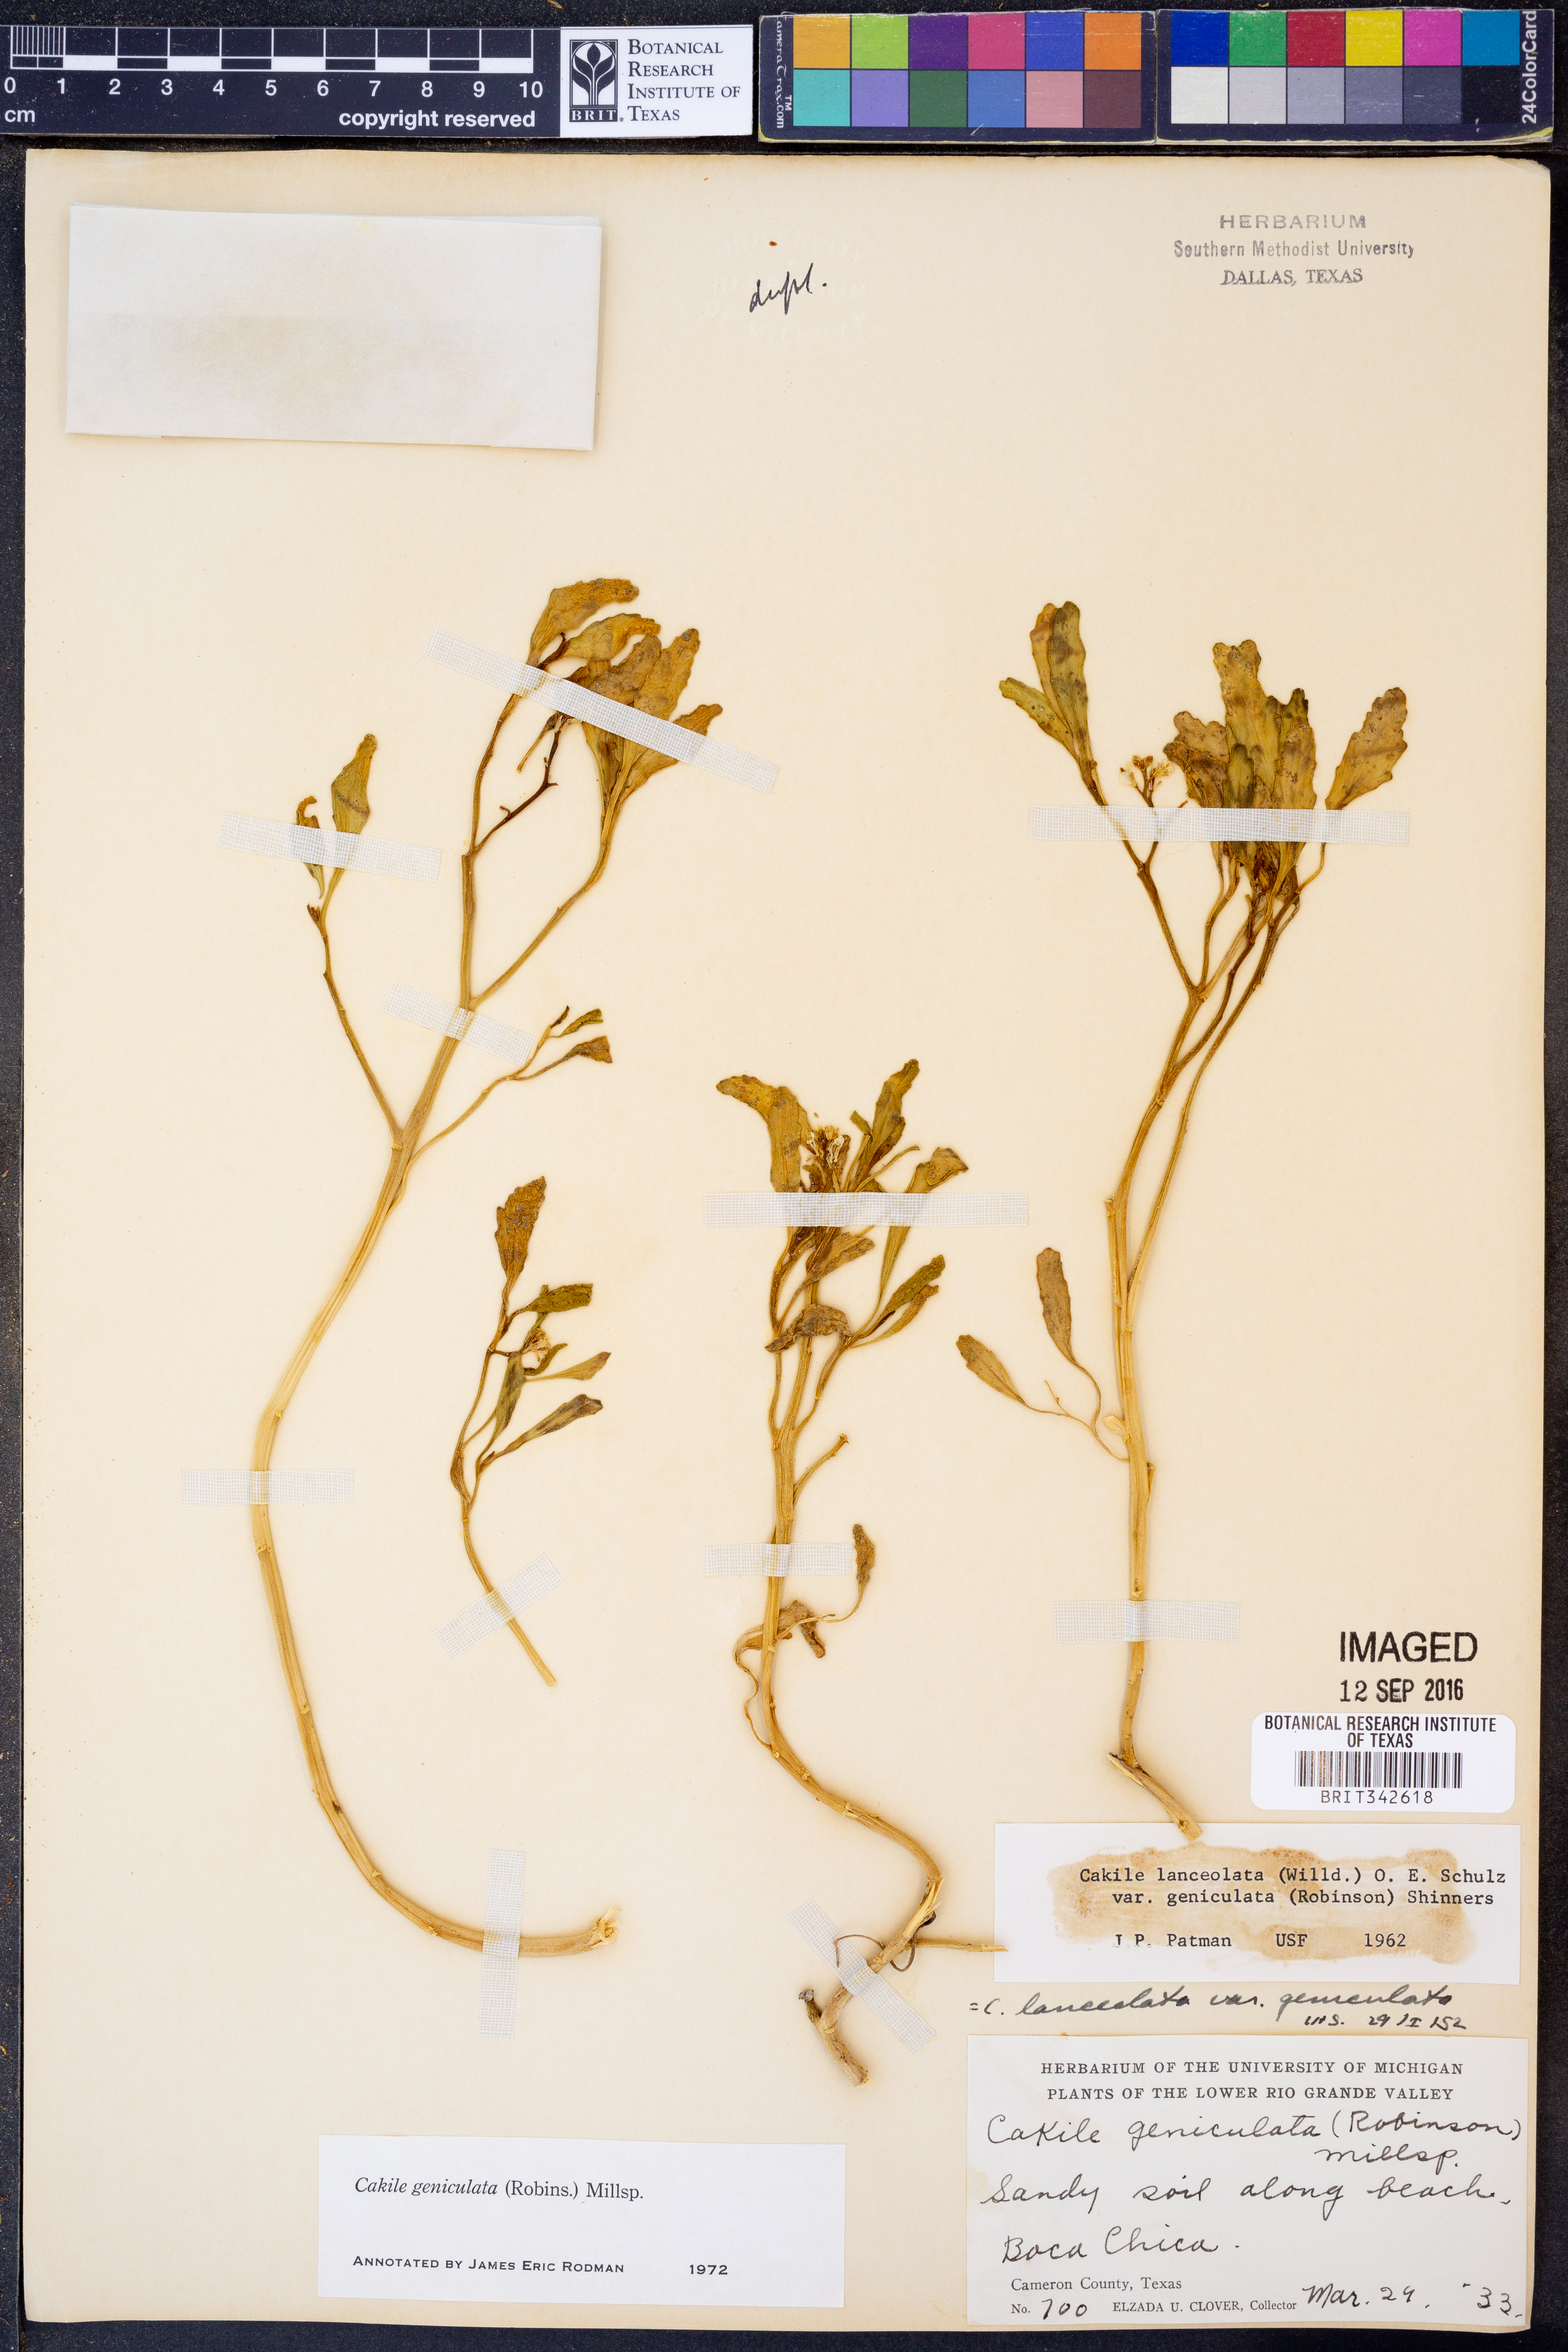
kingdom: Plantae
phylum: Tracheophyta
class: Magnoliopsida
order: Brassicales
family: Brassicaceae
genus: Cakile
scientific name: Cakile geniculata
